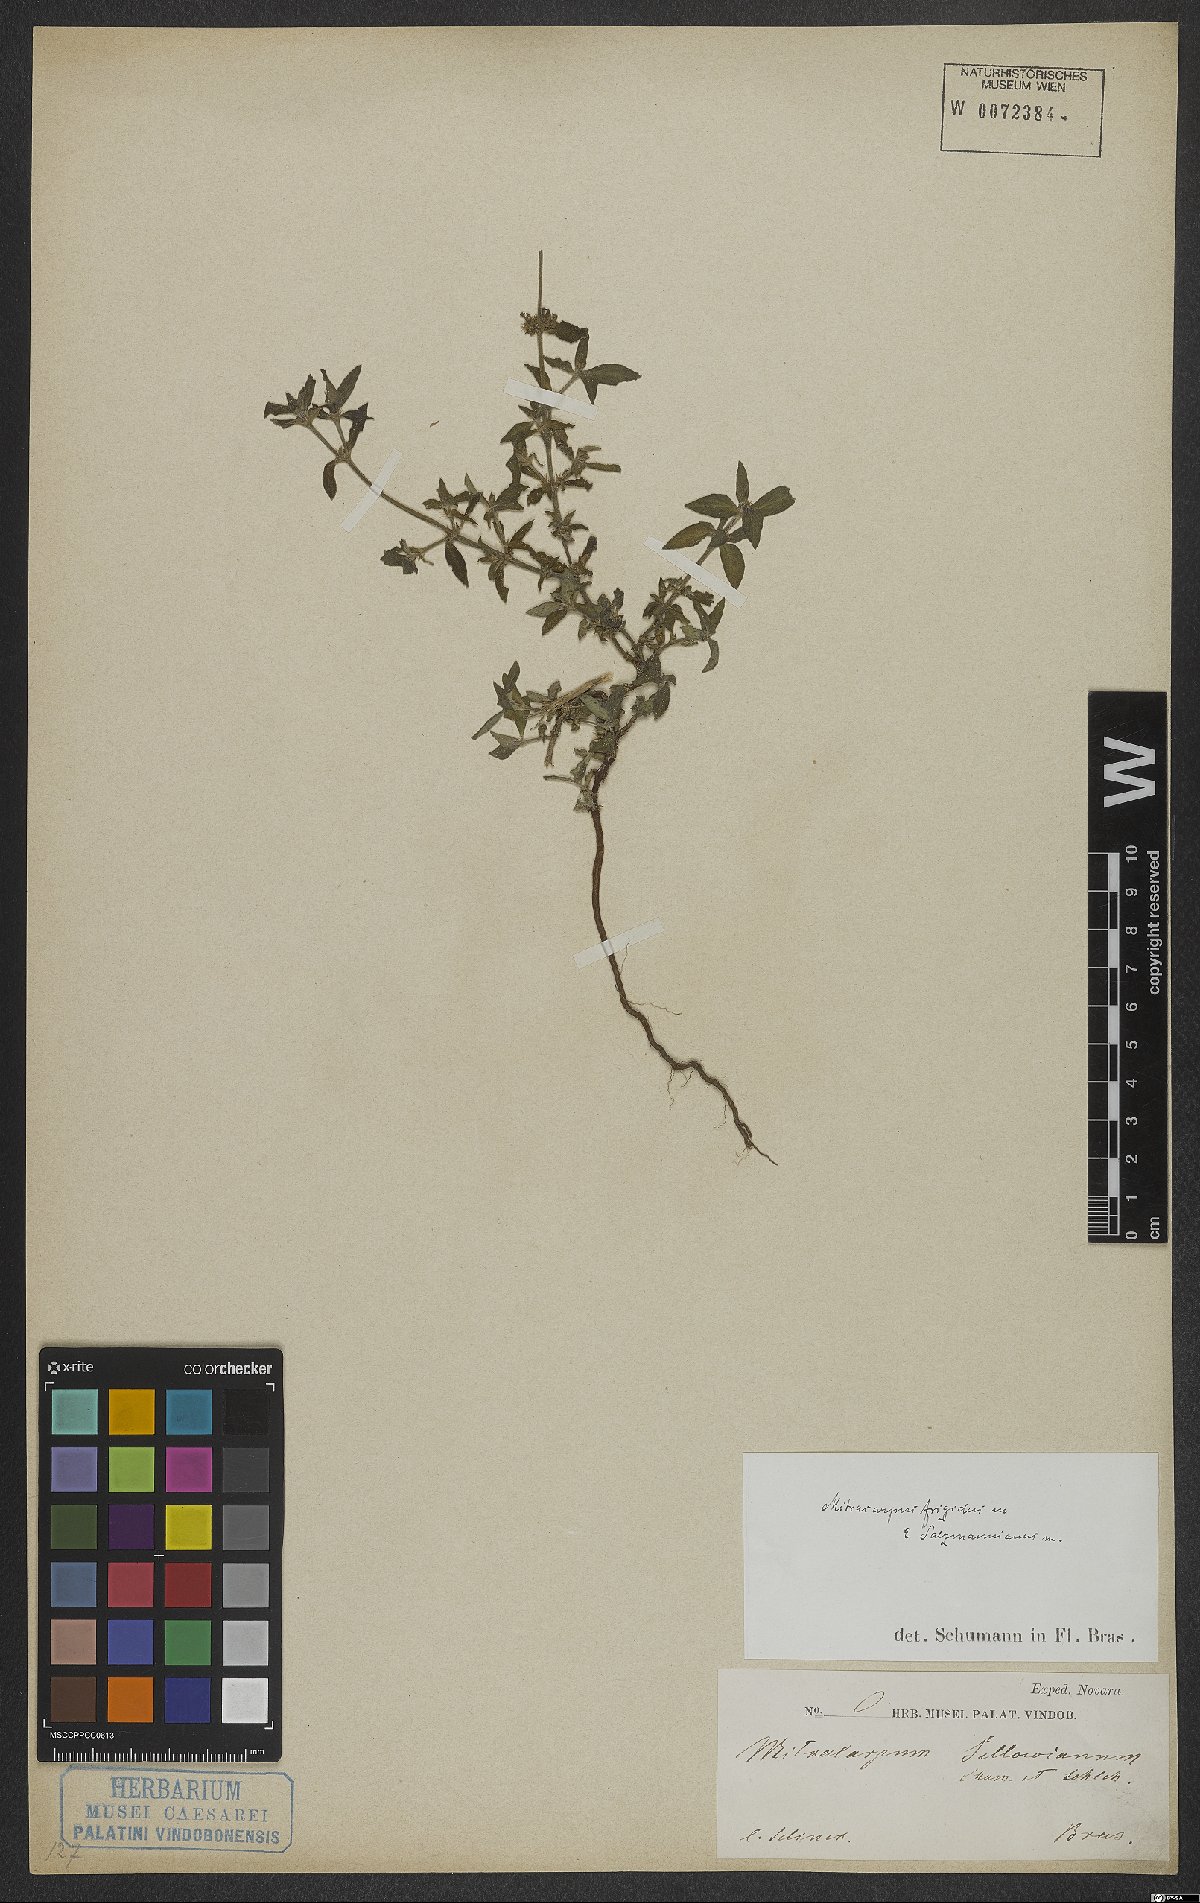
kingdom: Plantae
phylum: Tracheophyta
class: Magnoliopsida
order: Gentianales
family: Rubiaceae
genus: Mitracarpus
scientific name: Mitracarpus frigidus
